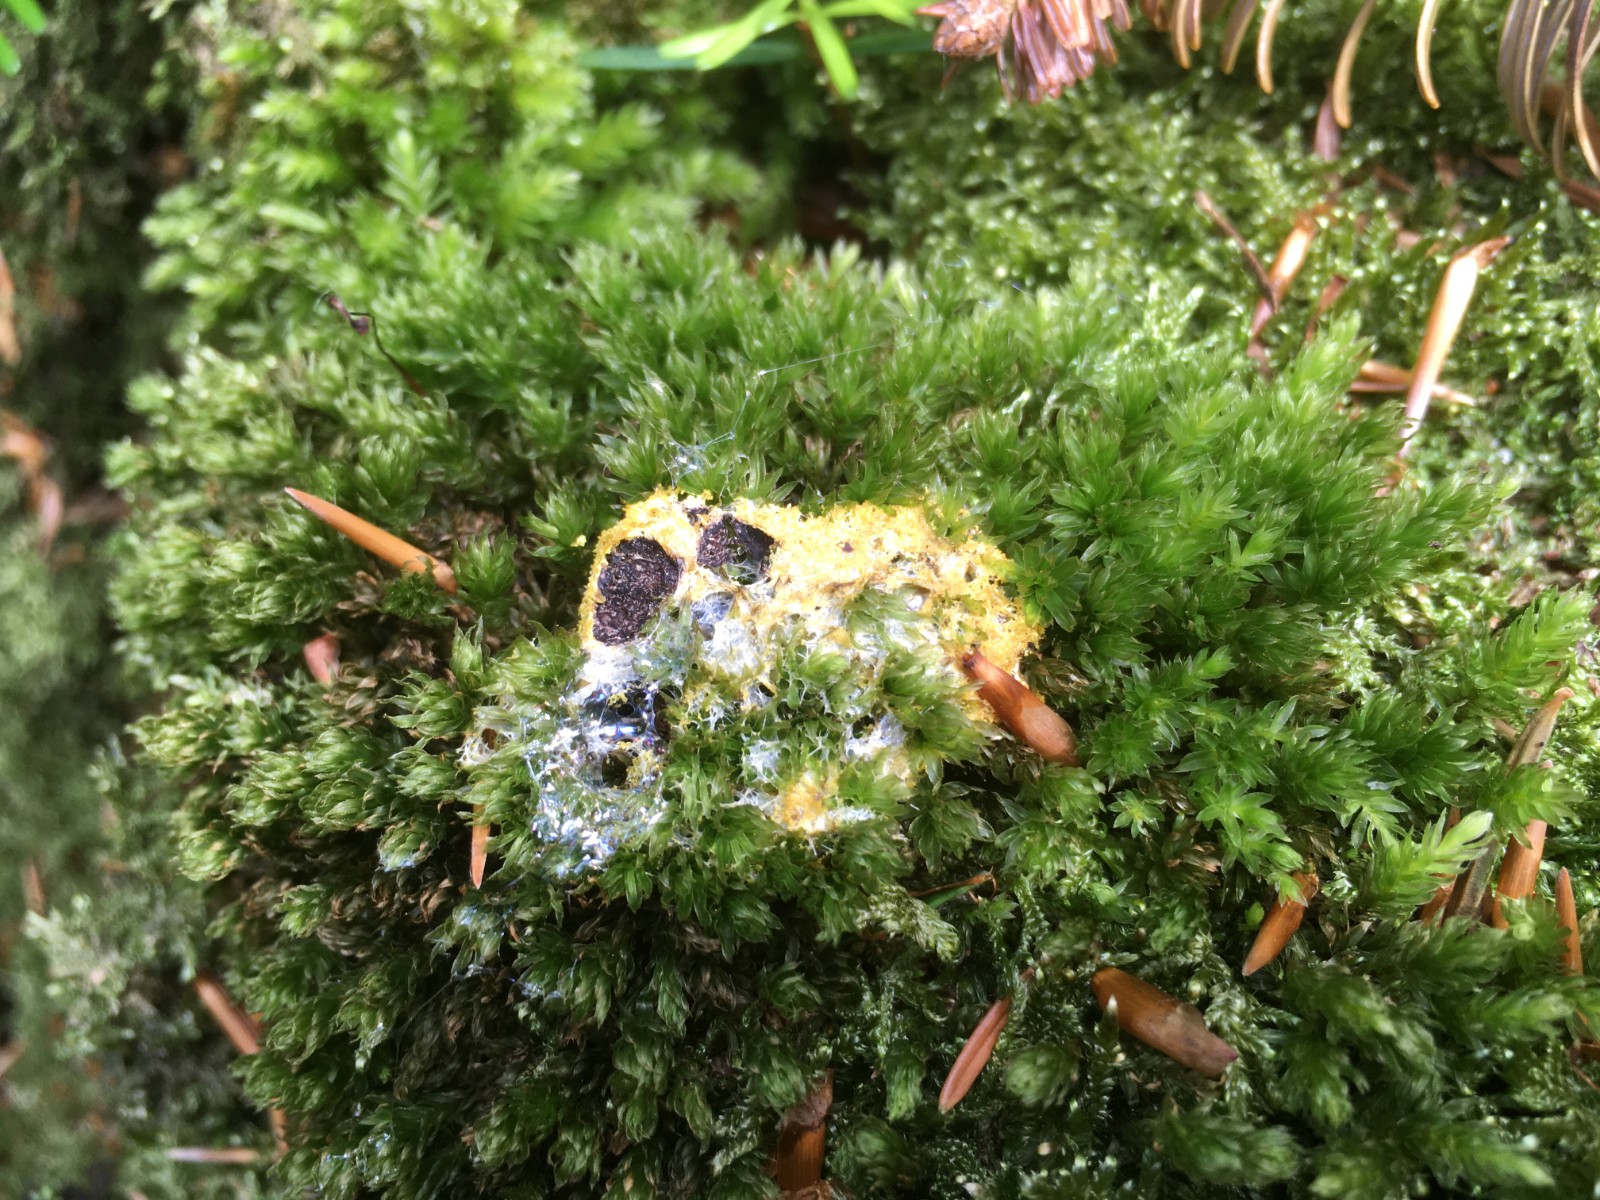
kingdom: Protozoa
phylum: Mycetozoa
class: Myxomycetes
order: Physarales
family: Physaraceae
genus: Fuligo
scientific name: Fuligo septica
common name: Dog vomit slime mold
